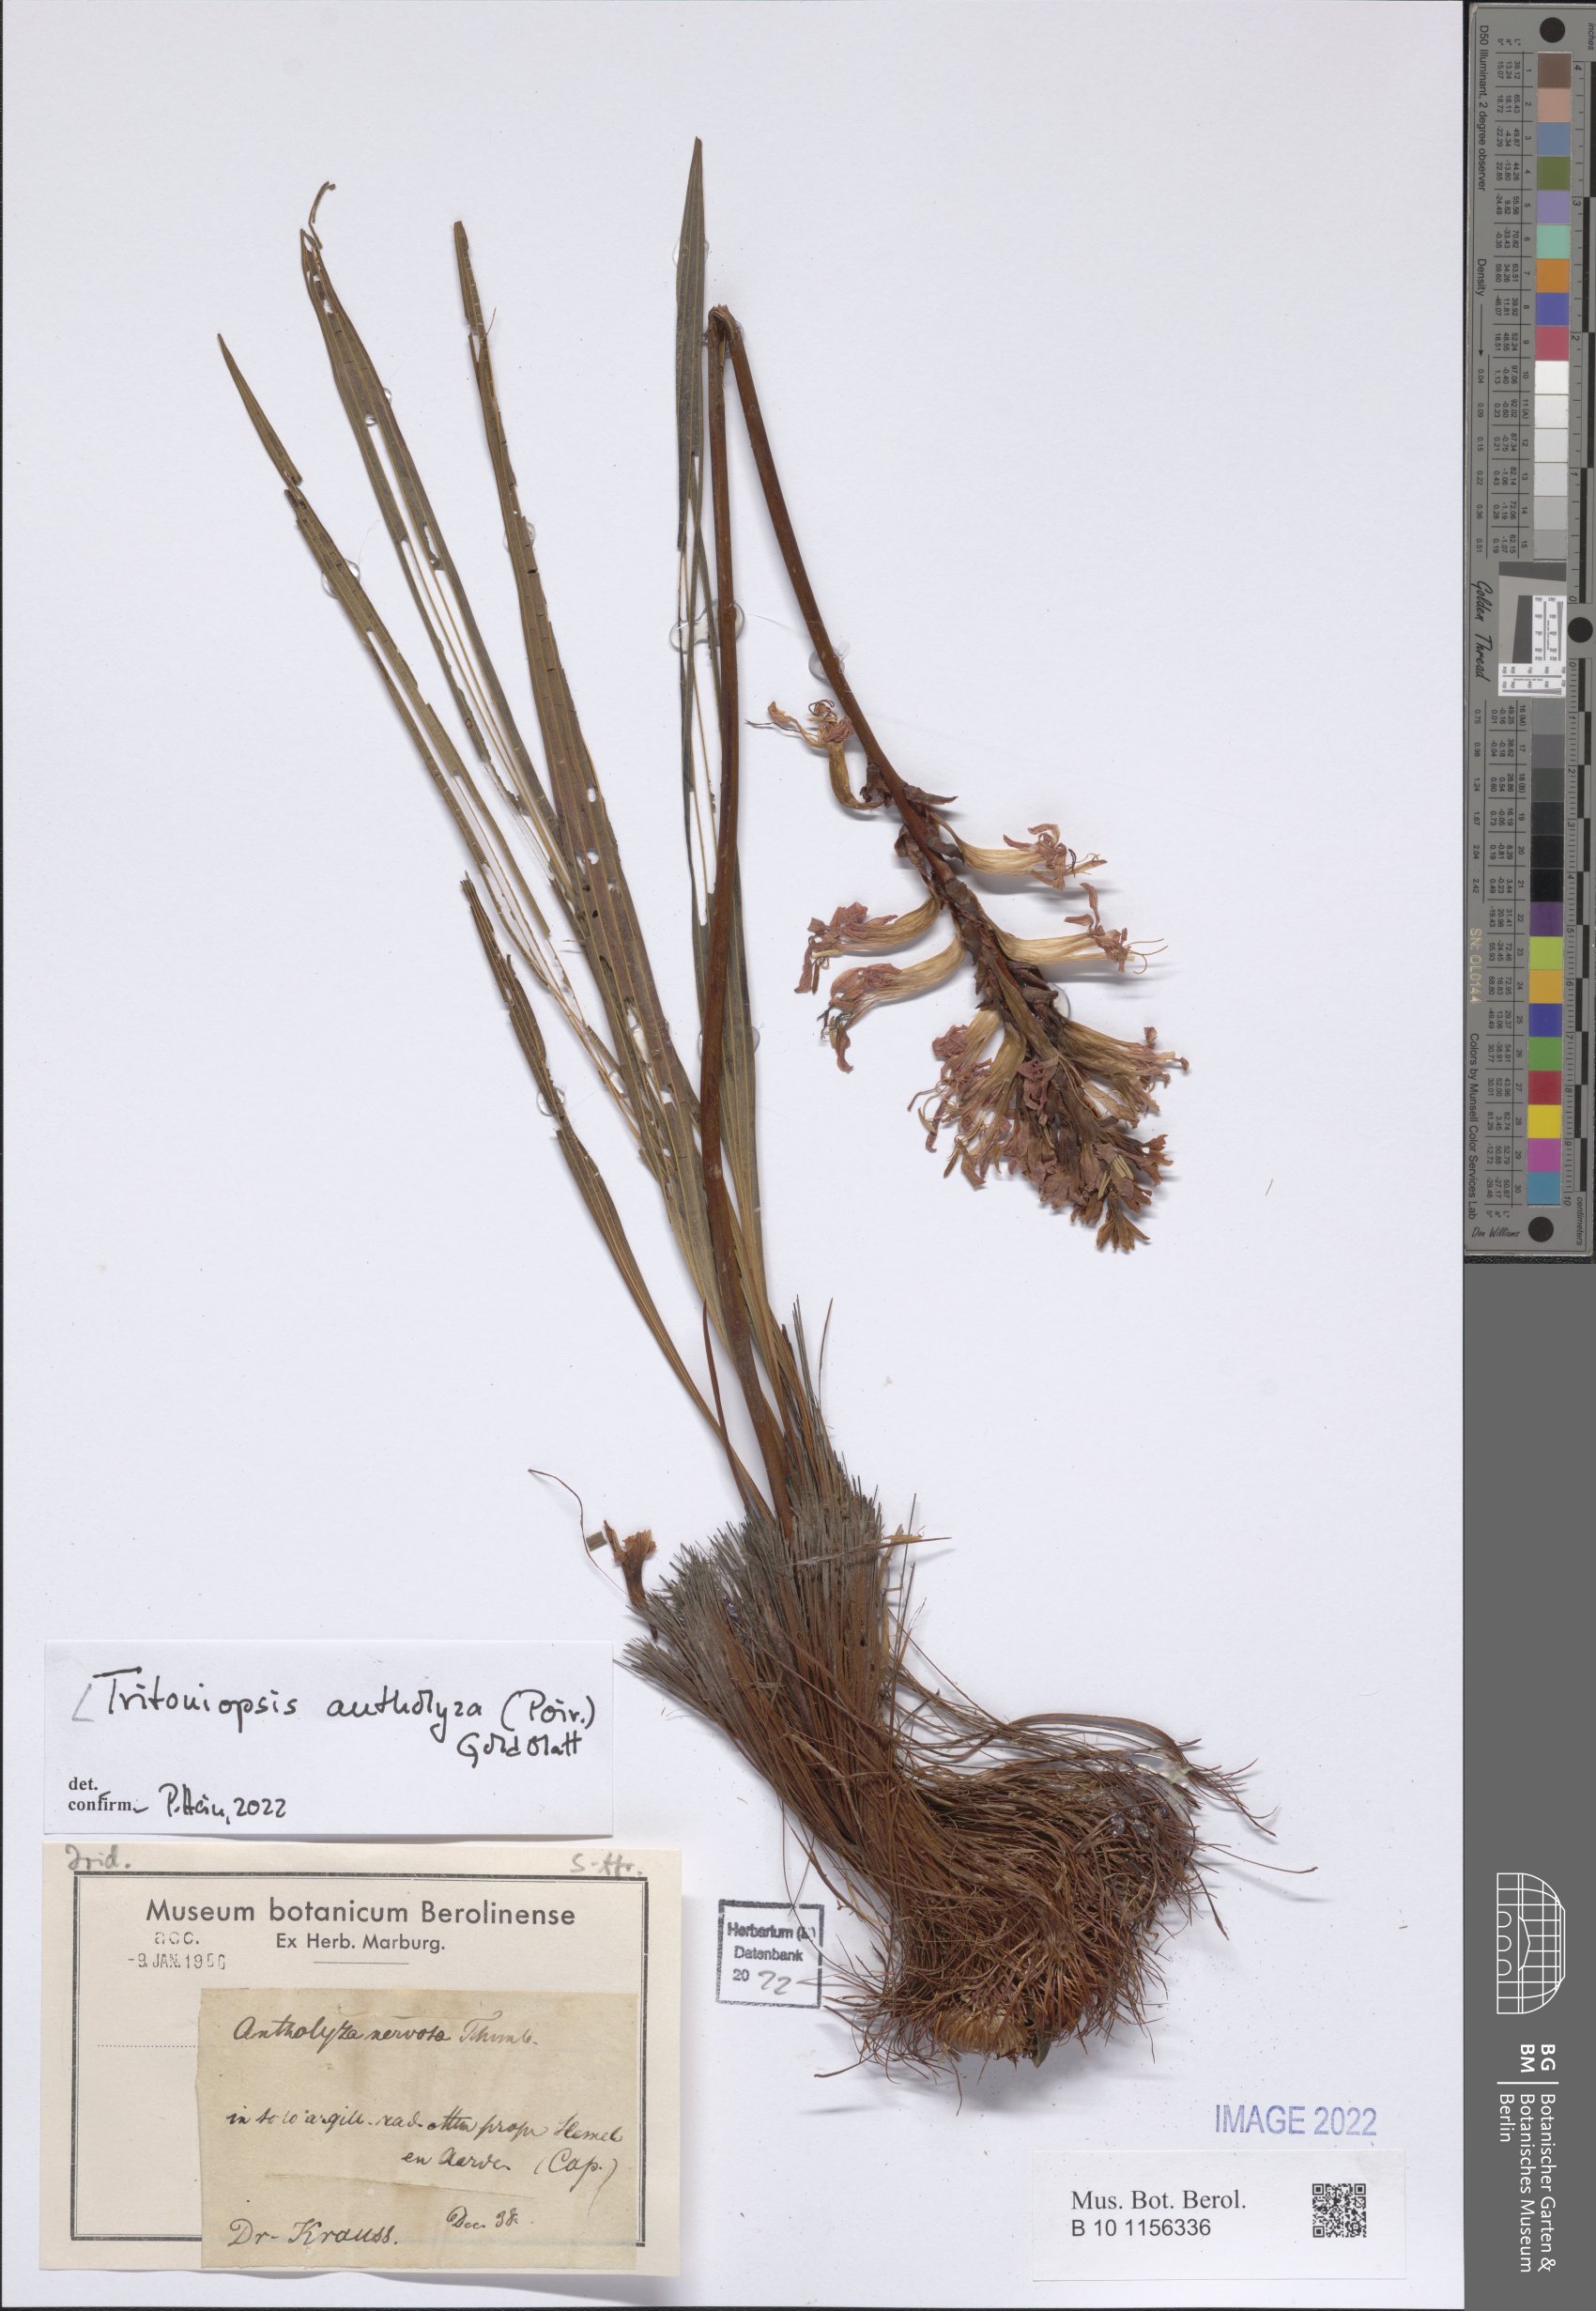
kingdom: Plantae
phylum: Tracheophyta
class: Liliopsida
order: Asparagales
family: Iridaceae
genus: Tritoniopsis
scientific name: Tritoniopsis antholyza
